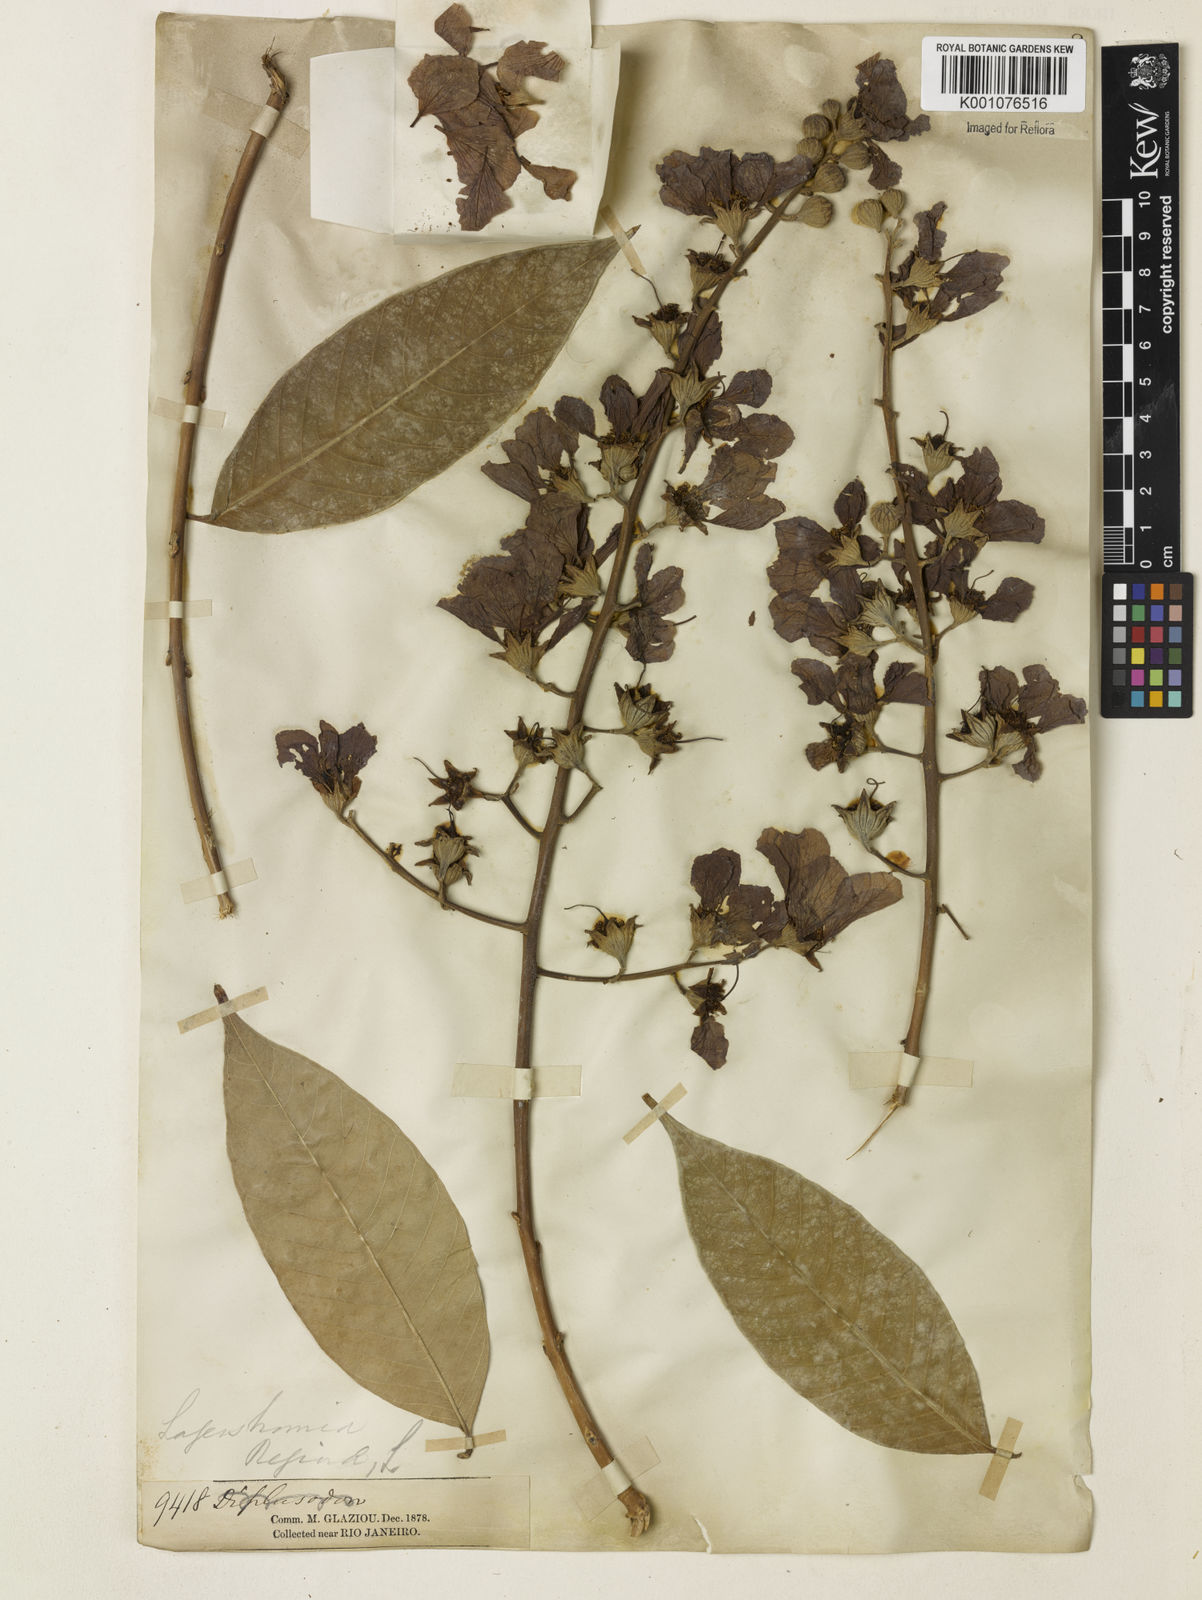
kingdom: Plantae
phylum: Tracheophyta
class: Magnoliopsida
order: Myrtales
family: Lythraceae
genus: Lagerstroemia
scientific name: Lagerstroemia speciosa
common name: Queen's crape-myrtle
